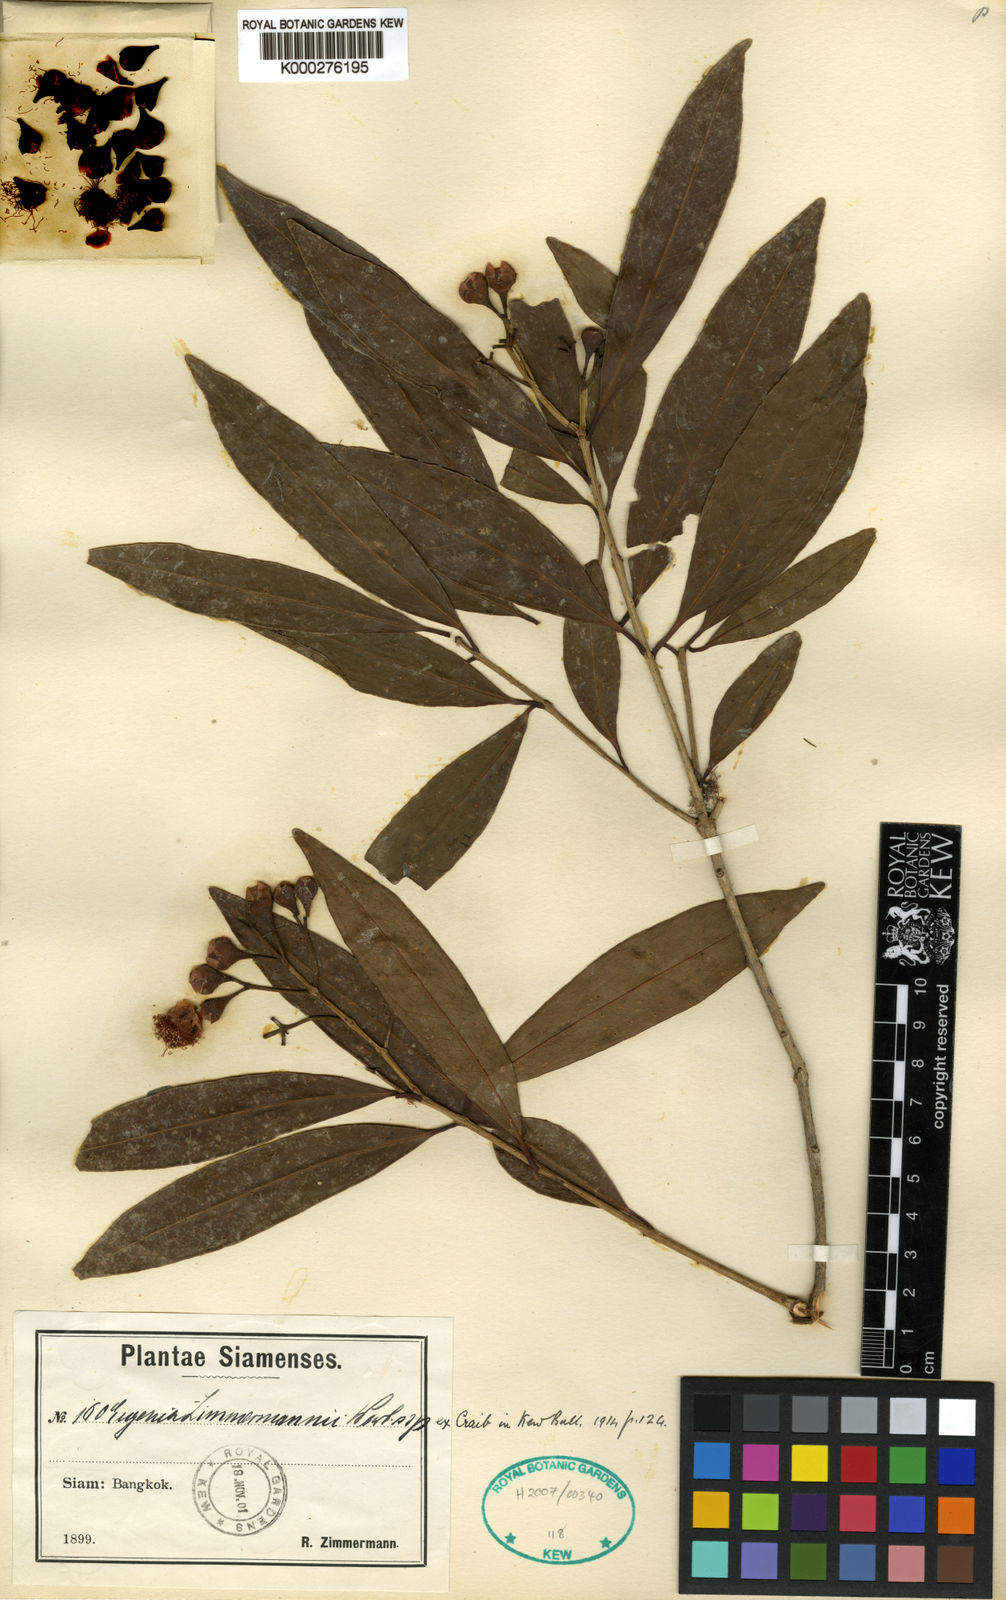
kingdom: Plantae
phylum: Tracheophyta
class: Magnoliopsida
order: Myrtales
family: Myrtaceae
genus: Syzygium
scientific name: Syzygium zimmermannii
